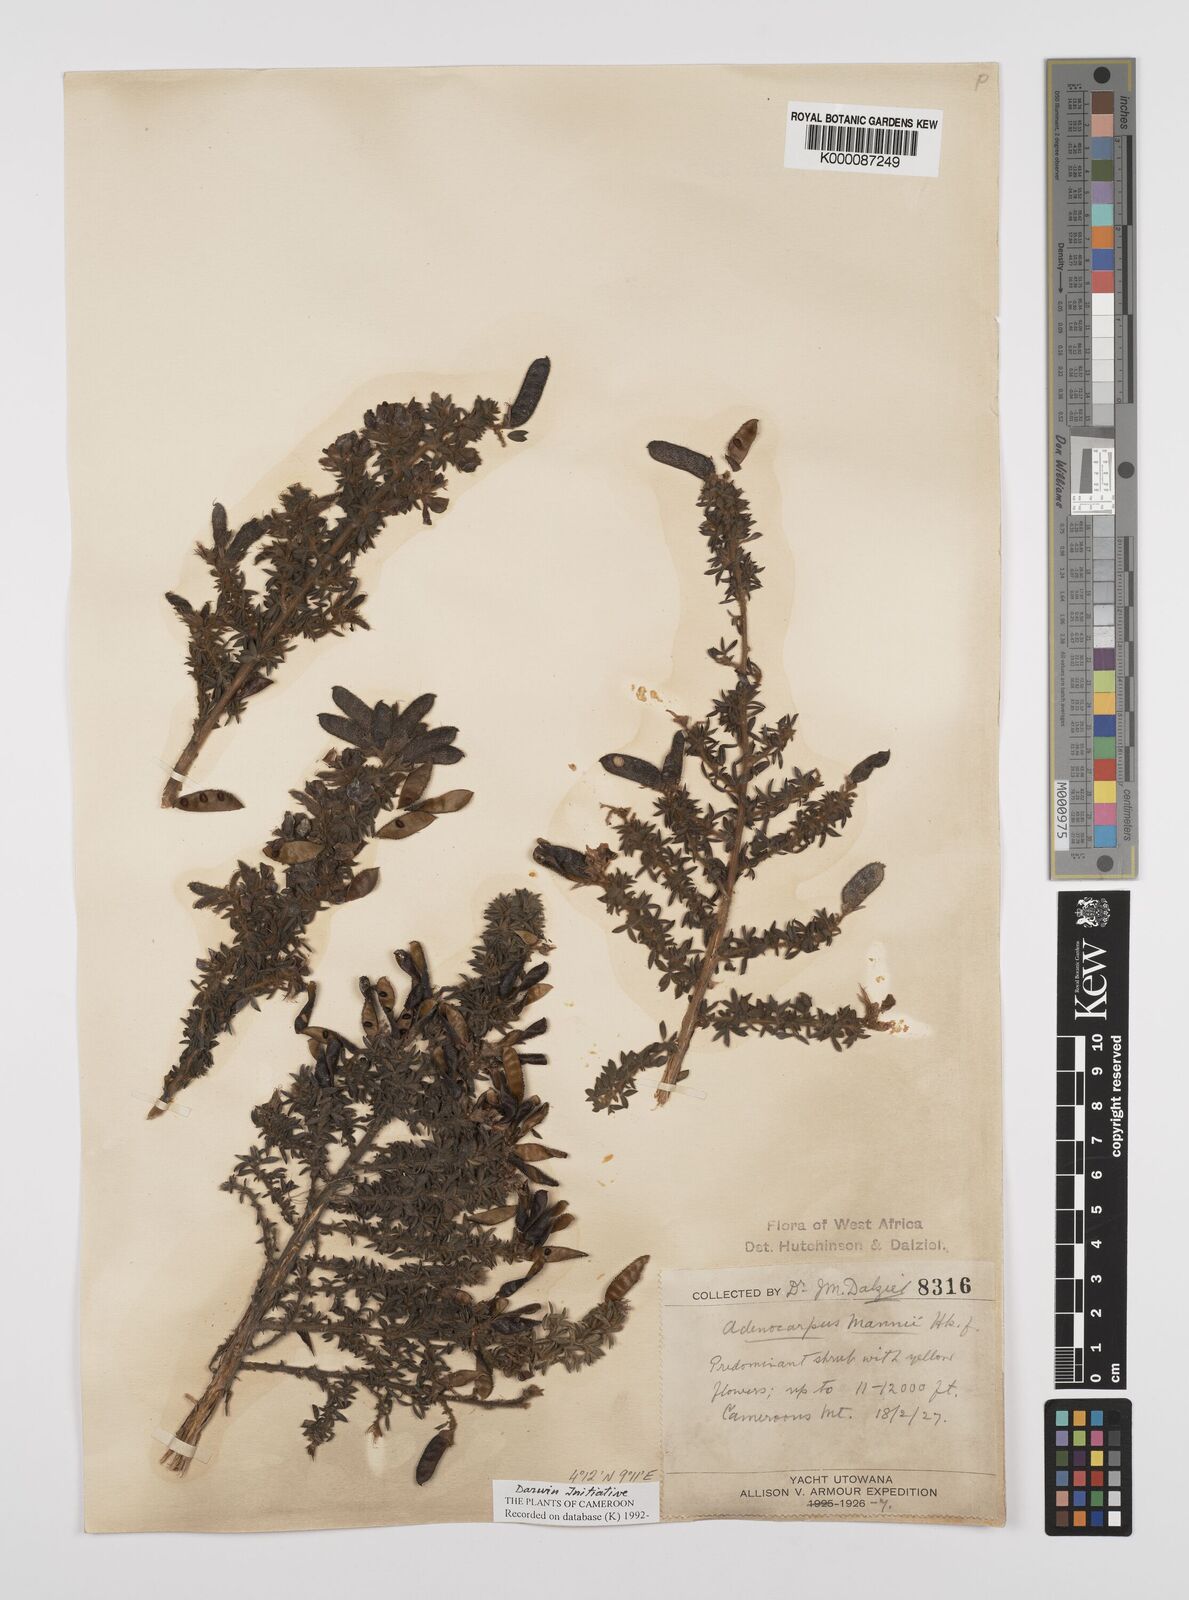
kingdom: Plantae
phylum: Tracheophyta
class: Magnoliopsida
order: Fabales
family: Fabaceae
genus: Adenocarpus
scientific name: Adenocarpus mannii
